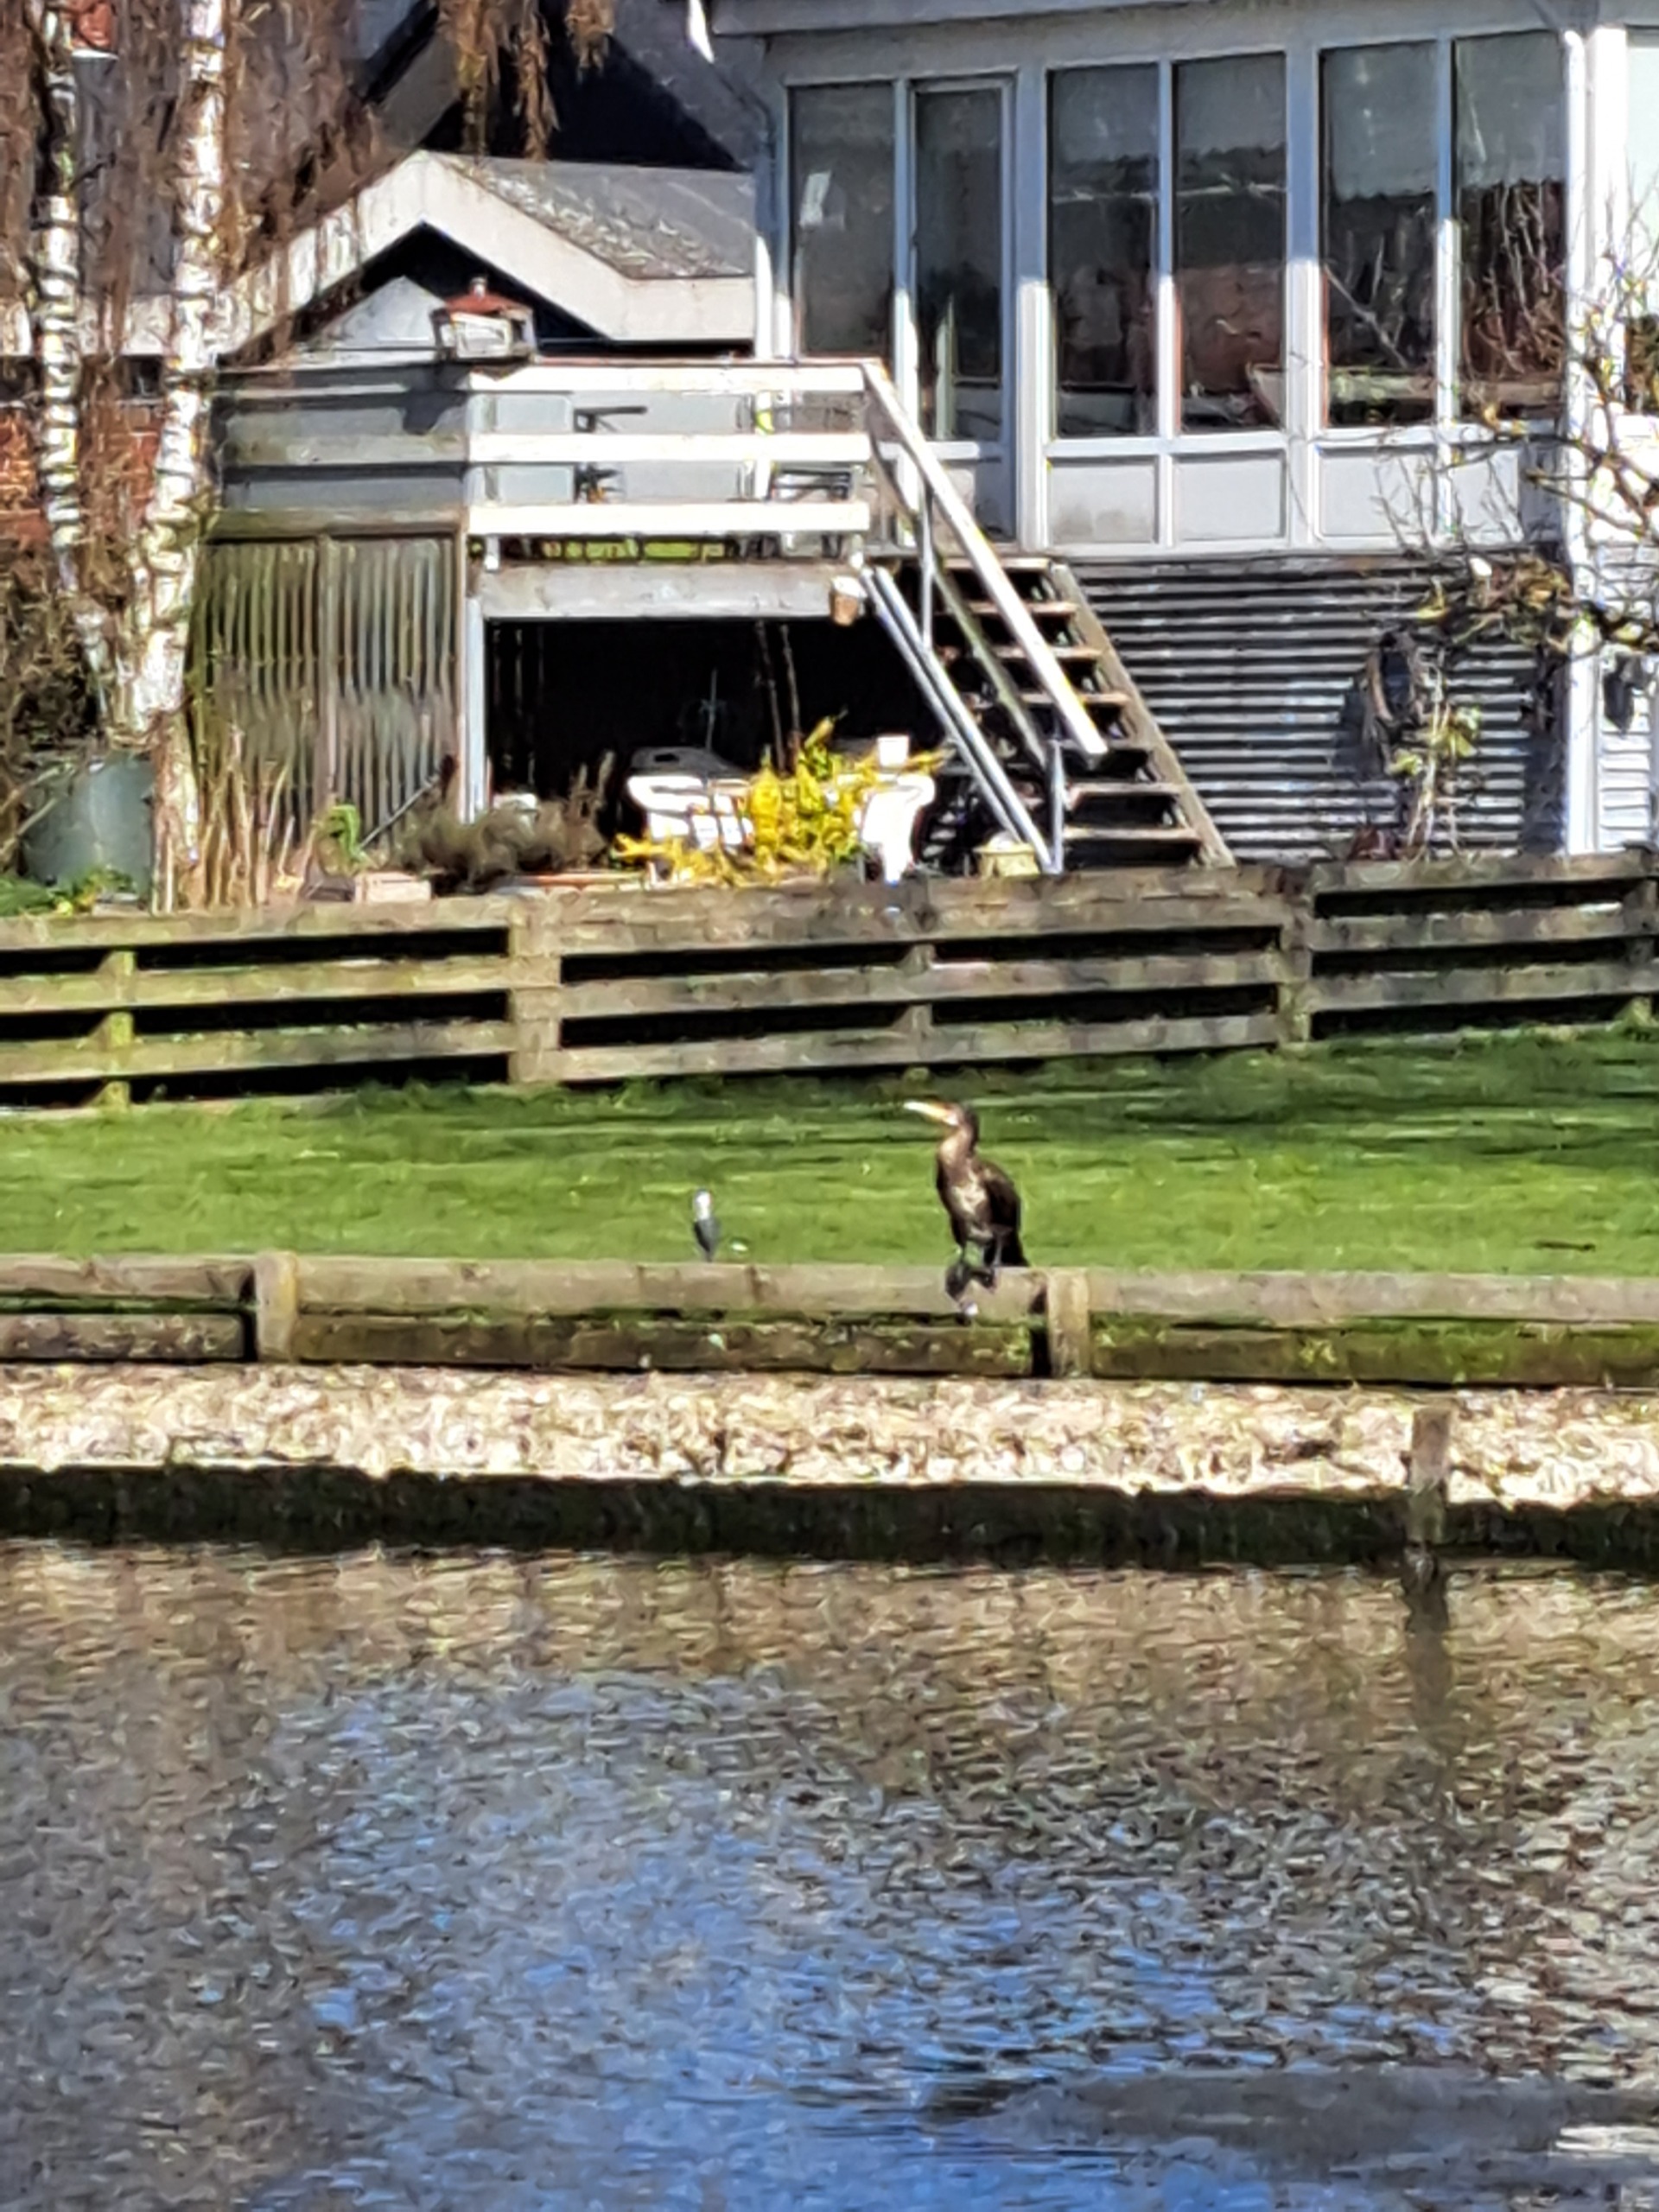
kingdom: Animalia
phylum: Chordata
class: Aves
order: Suliformes
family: Phalacrocoracidae
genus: Phalacrocorax
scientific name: Phalacrocorax carbo
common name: Skarv
